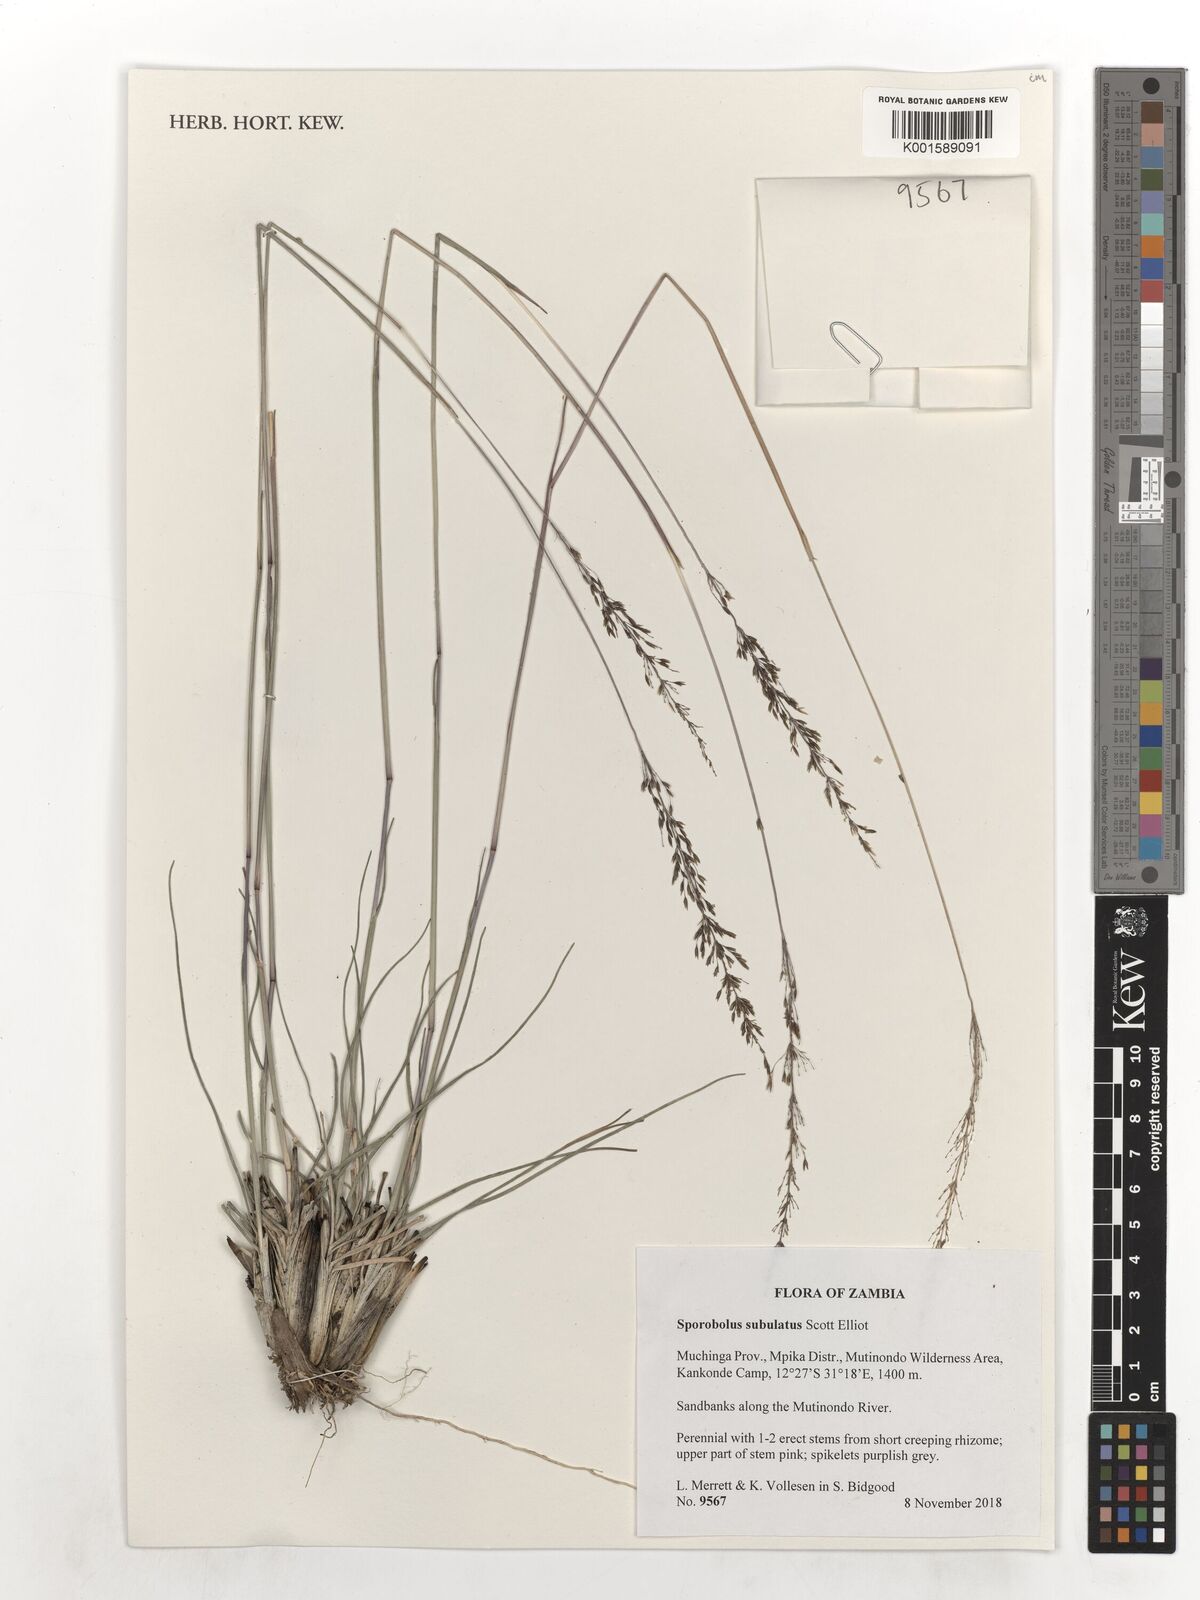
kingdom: Plantae
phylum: Tracheophyta
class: Liliopsida
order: Poales
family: Poaceae
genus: Sporobolus
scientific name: Sporobolus subulatus
